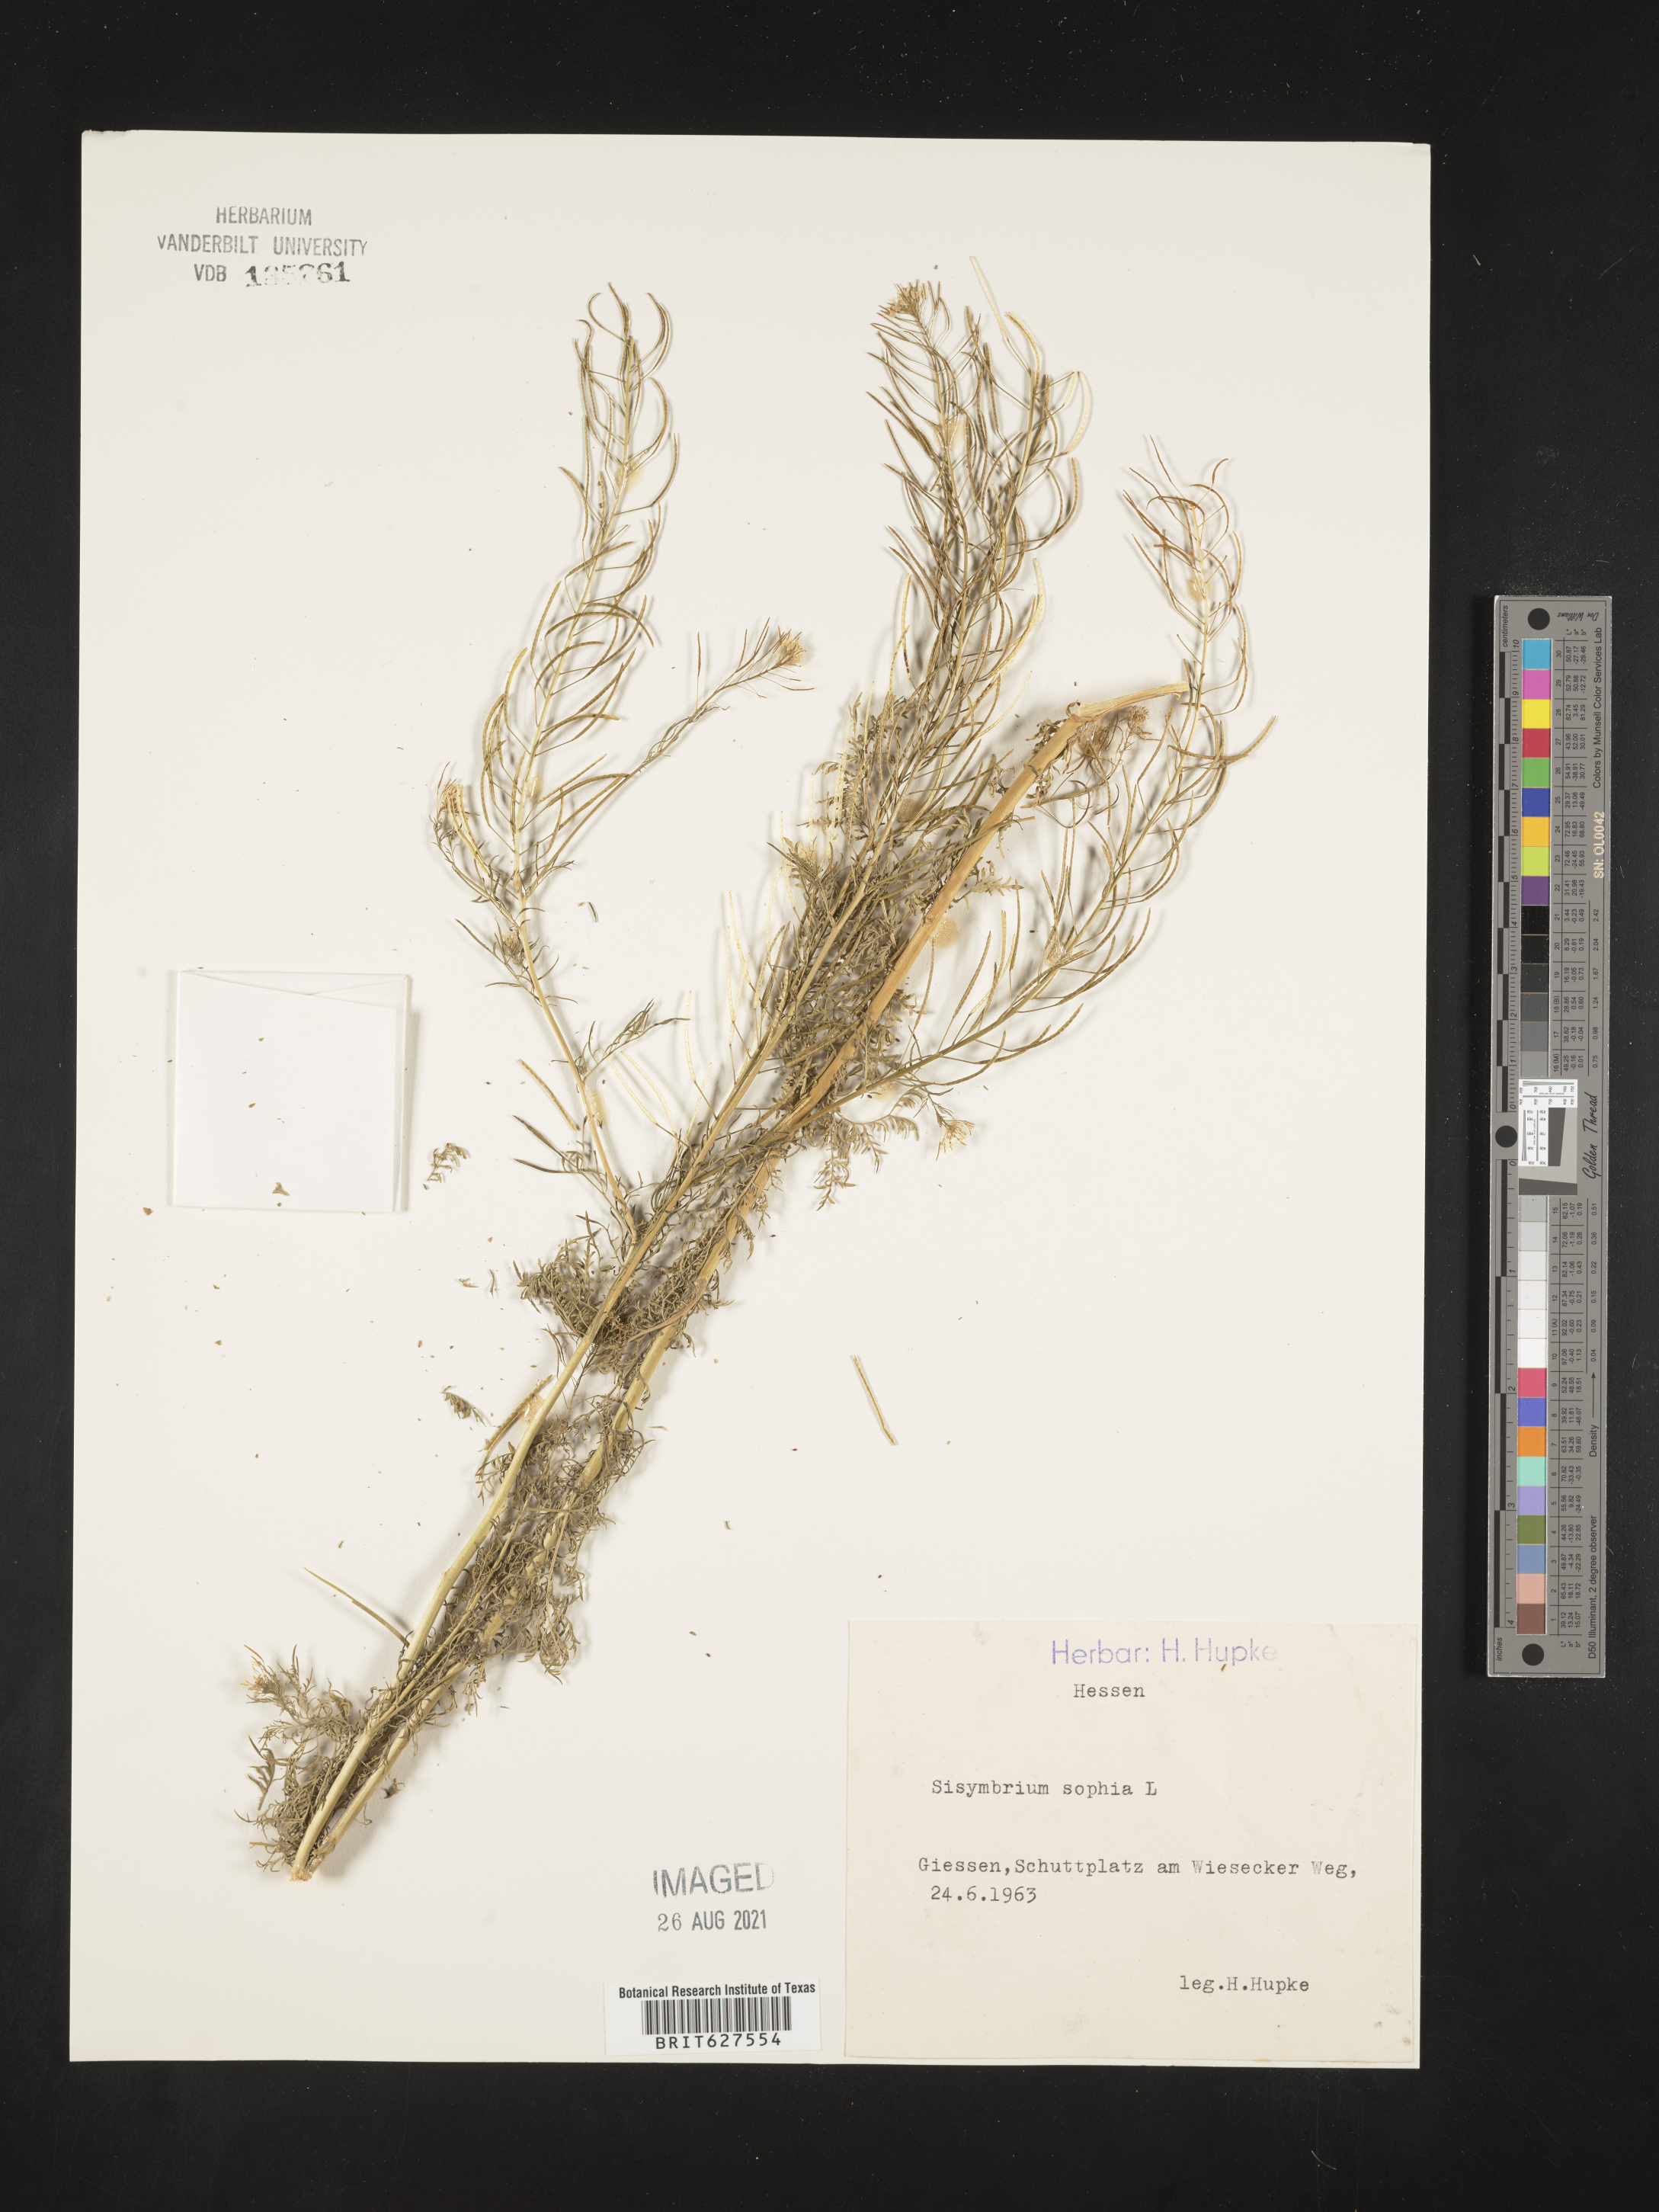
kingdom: Plantae
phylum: Tracheophyta
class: Magnoliopsida
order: Brassicales
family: Brassicaceae
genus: Descurainia
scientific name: Descurainia sophia
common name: Flixweed
